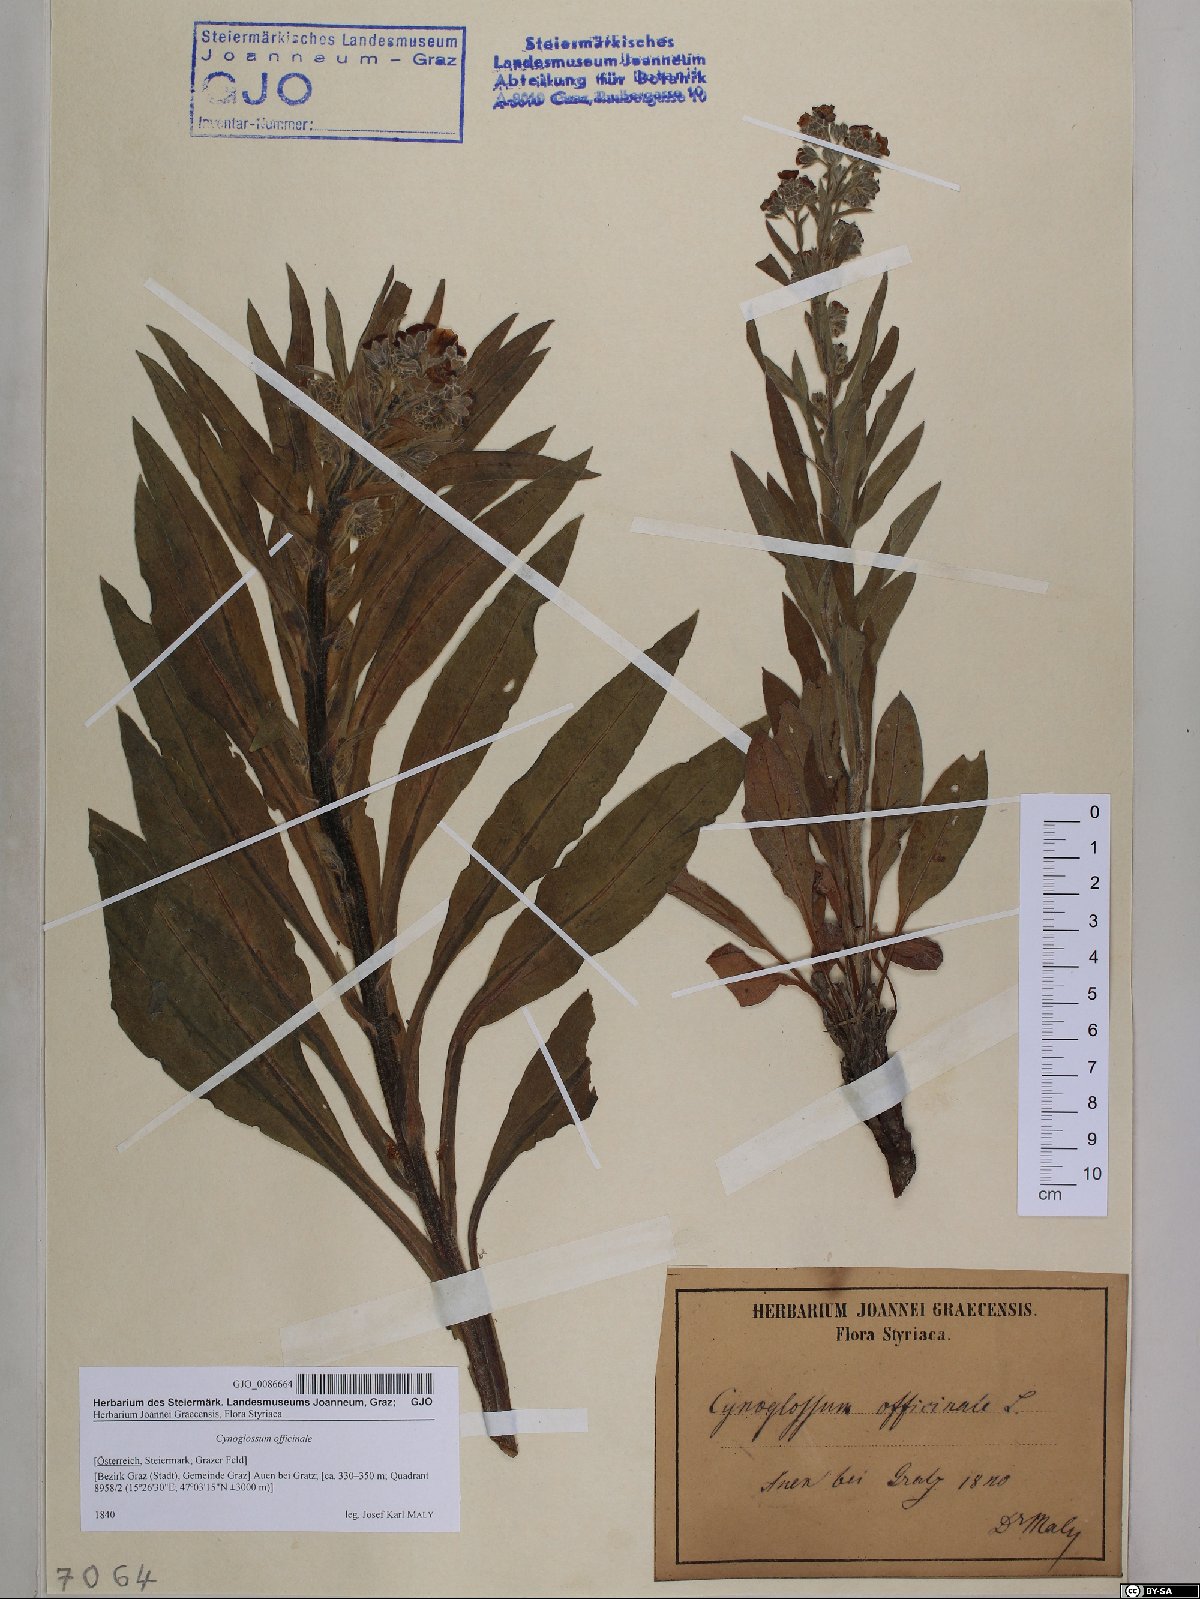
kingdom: Plantae
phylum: Tracheophyta
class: Magnoliopsida
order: Boraginales
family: Boraginaceae
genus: Cynoglossum
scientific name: Cynoglossum officinale
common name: Hound's-tongue
